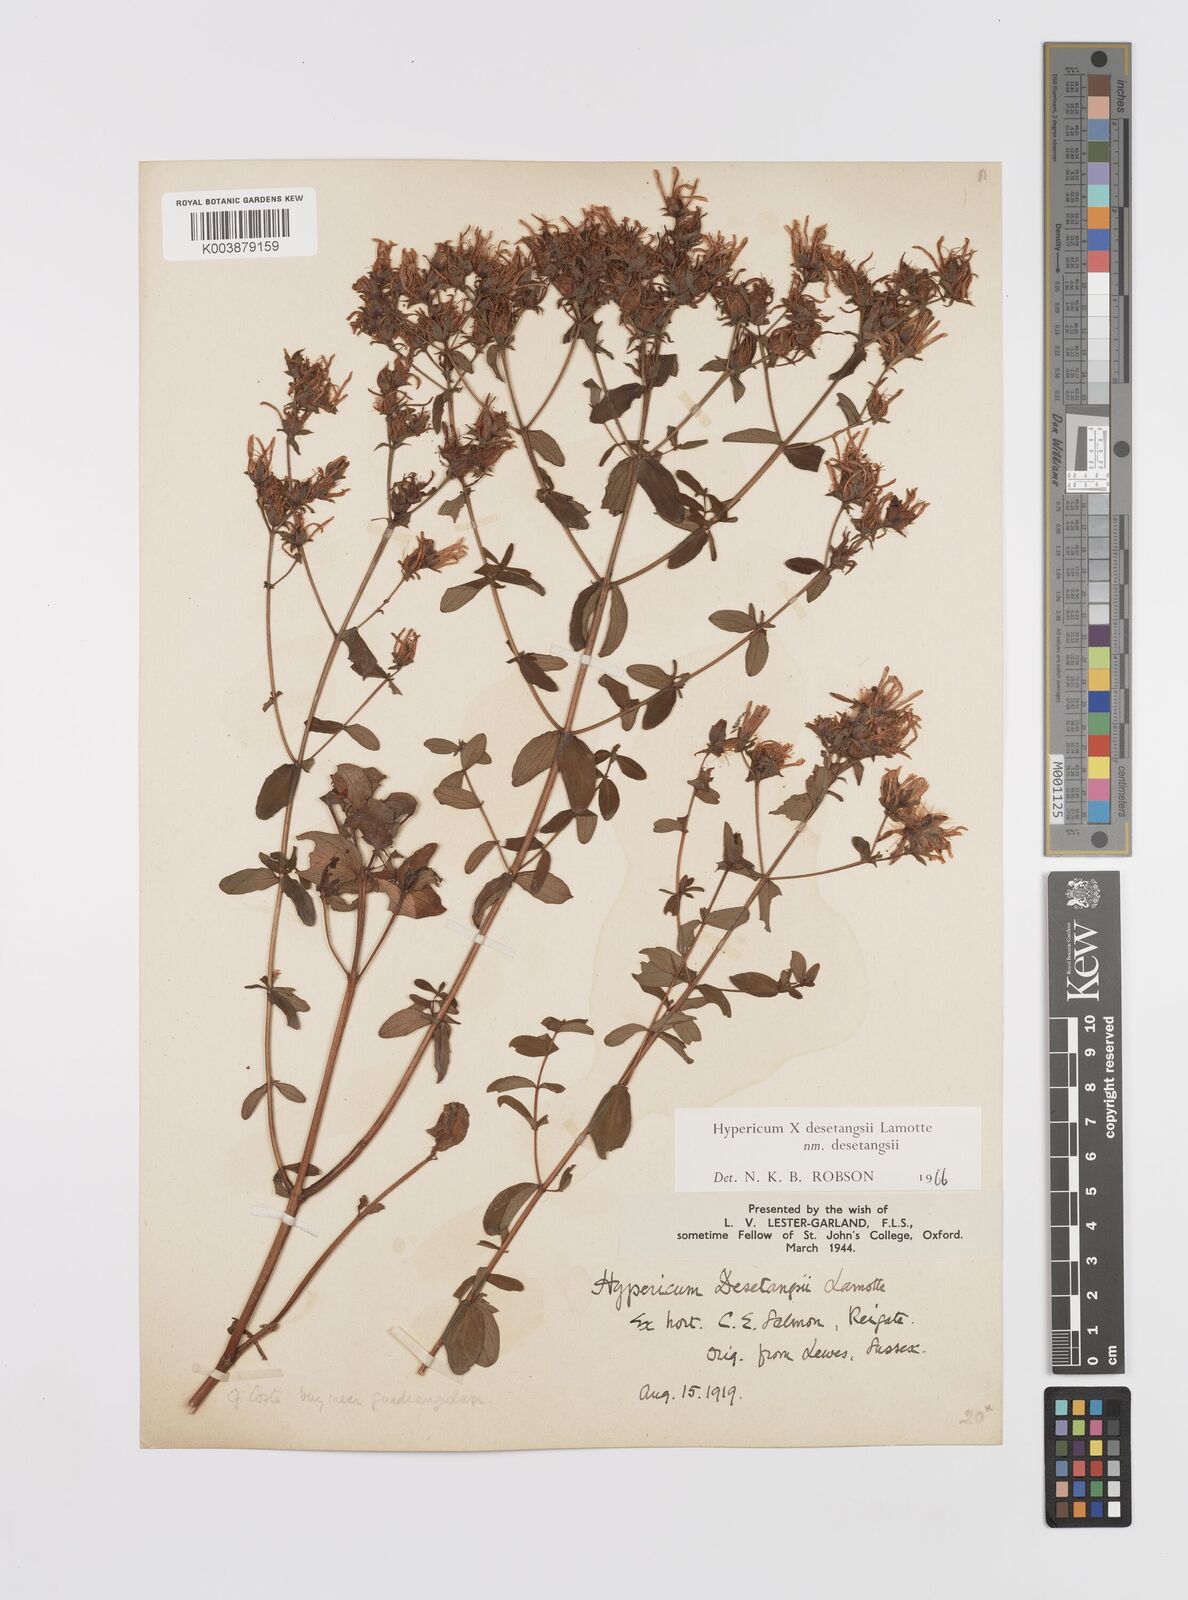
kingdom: Plantae
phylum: Tracheophyta
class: Magnoliopsida
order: Malpighiales
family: Hypericaceae
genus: Hypericum
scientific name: Hypericum desetangsii
